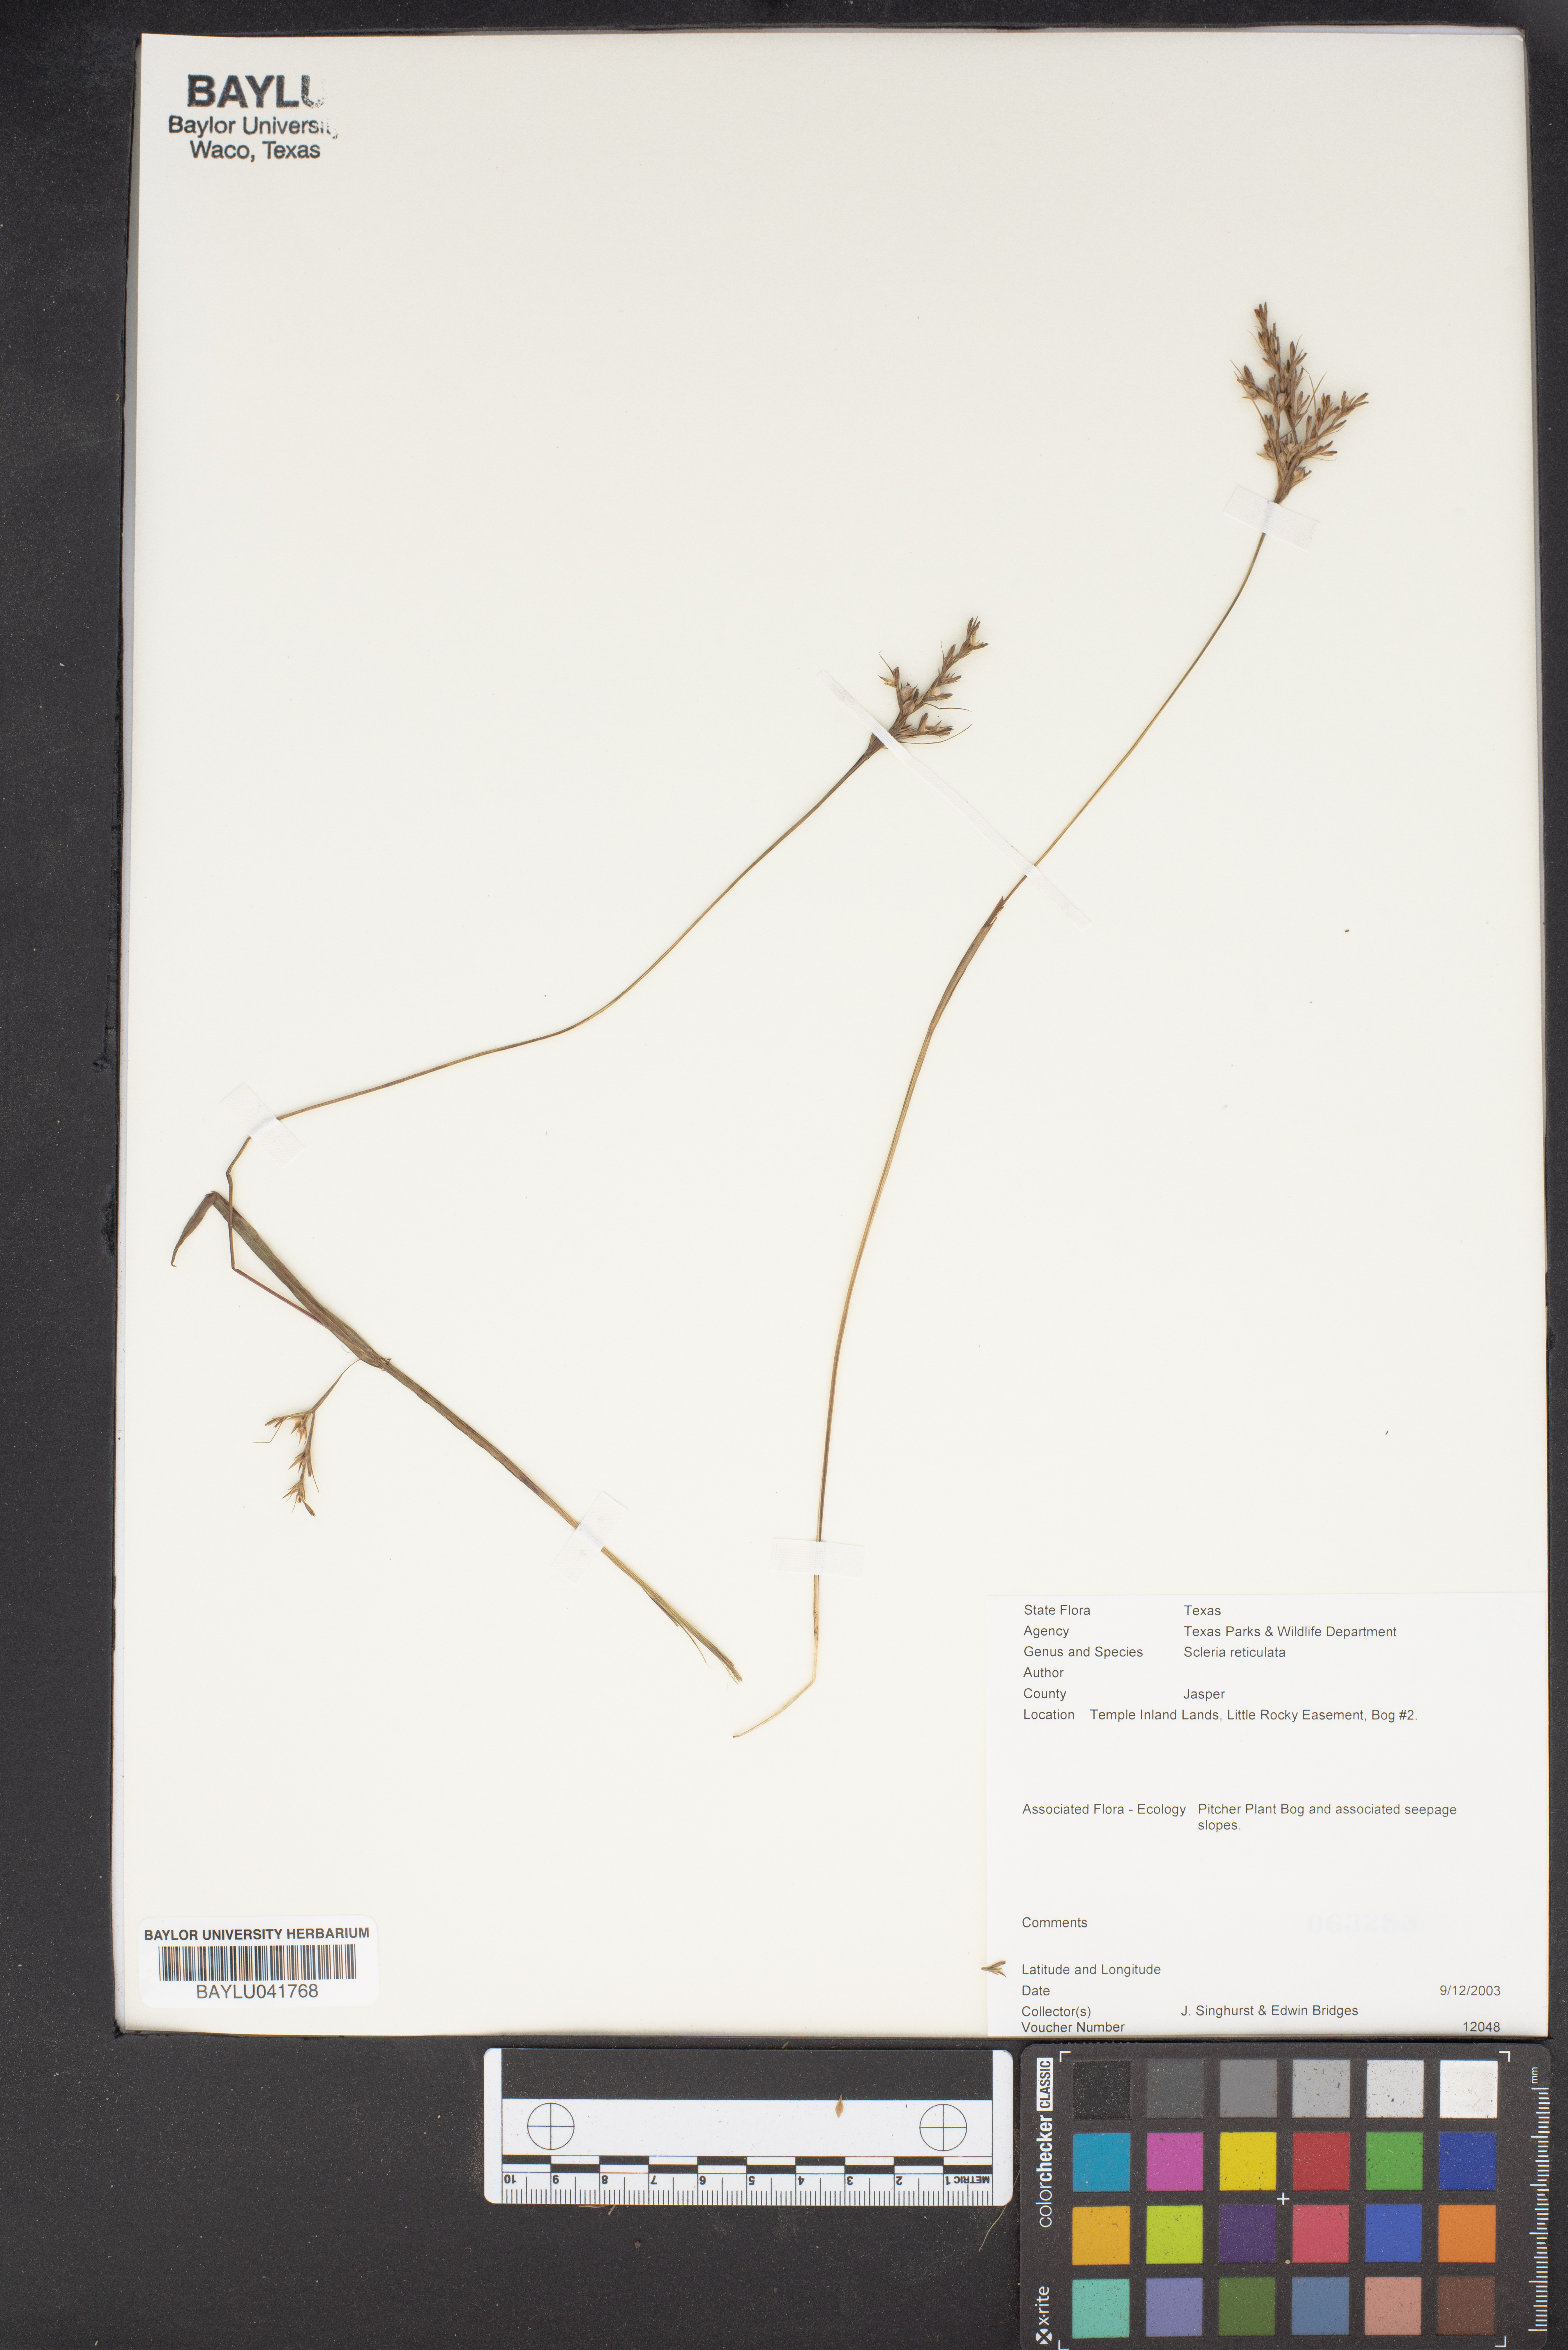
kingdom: Plantae
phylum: Tracheophyta
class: Liliopsida
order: Poales
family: Cyperaceae
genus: Diplacrum
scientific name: Diplacrum reticulatum
